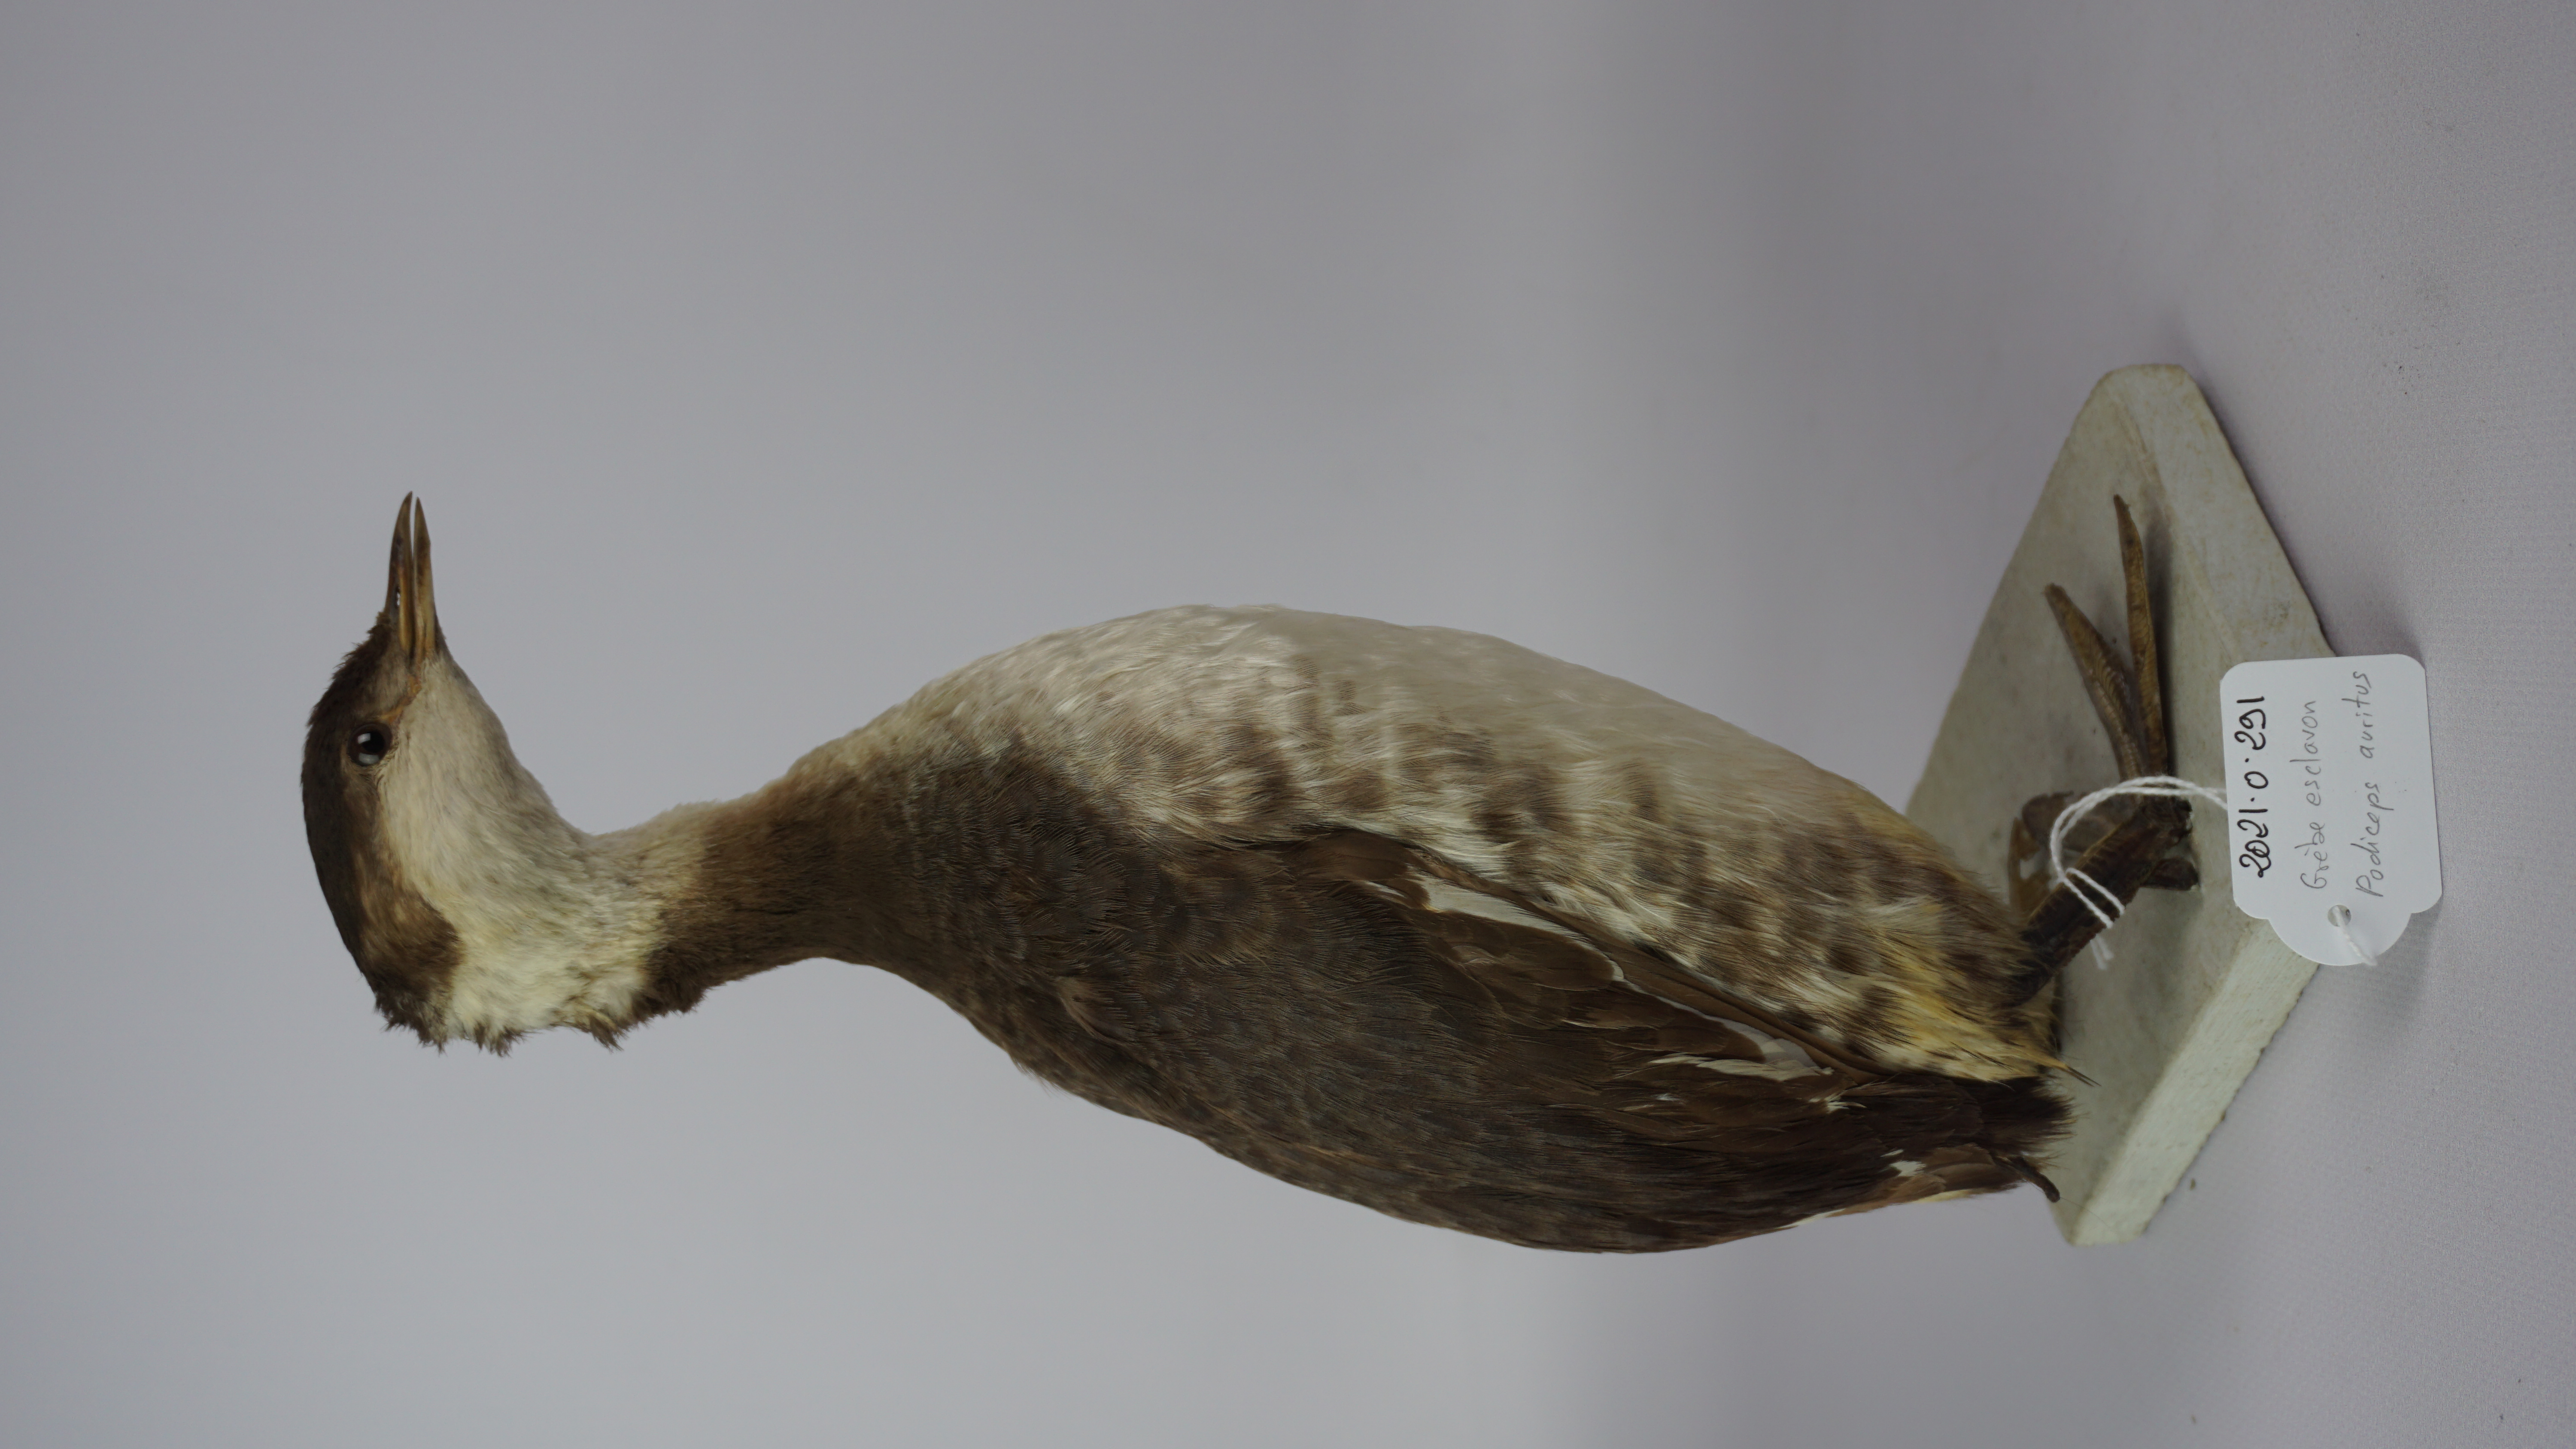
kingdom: Animalia
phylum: Chordata
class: Aves
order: Podicipediformes
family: Podicipedidae
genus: Podiceps
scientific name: Podiceps auritus
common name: Horned grebe
